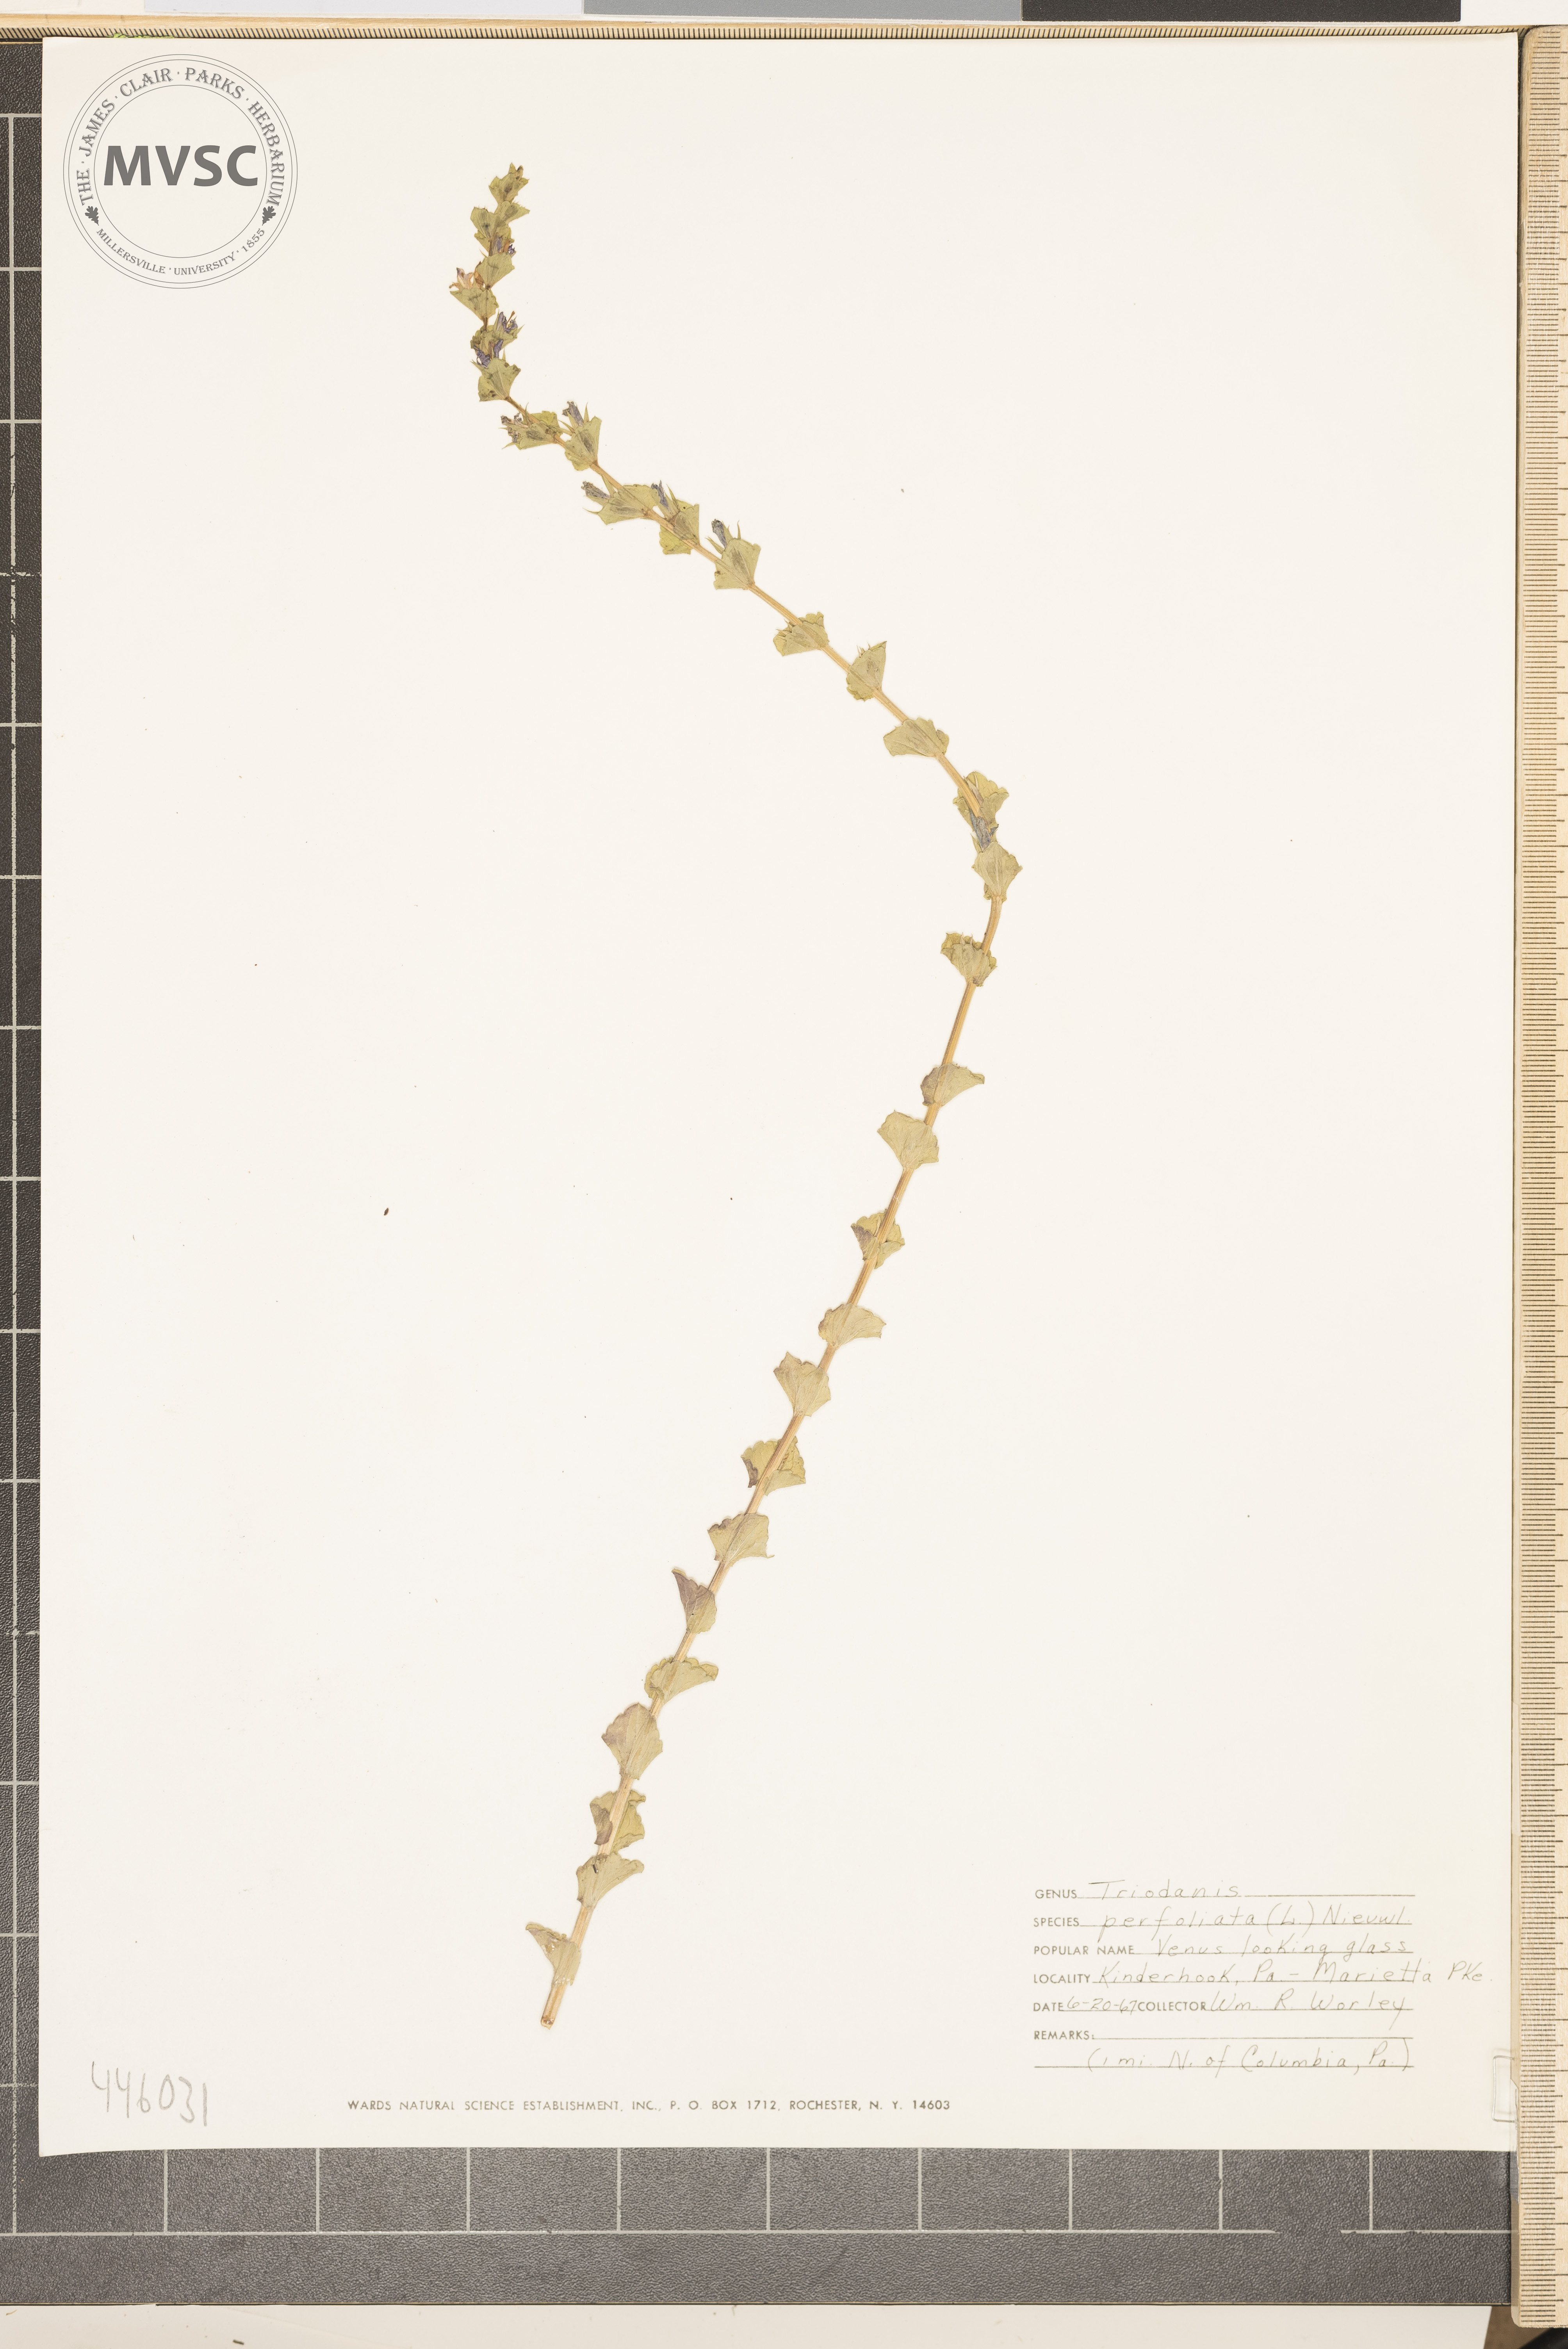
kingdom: Plantae
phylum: Tracheophyta
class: Magnoliopsida
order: Asterales
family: Campanulaceae
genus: Triodanis
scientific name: Triodanis perfoliata
